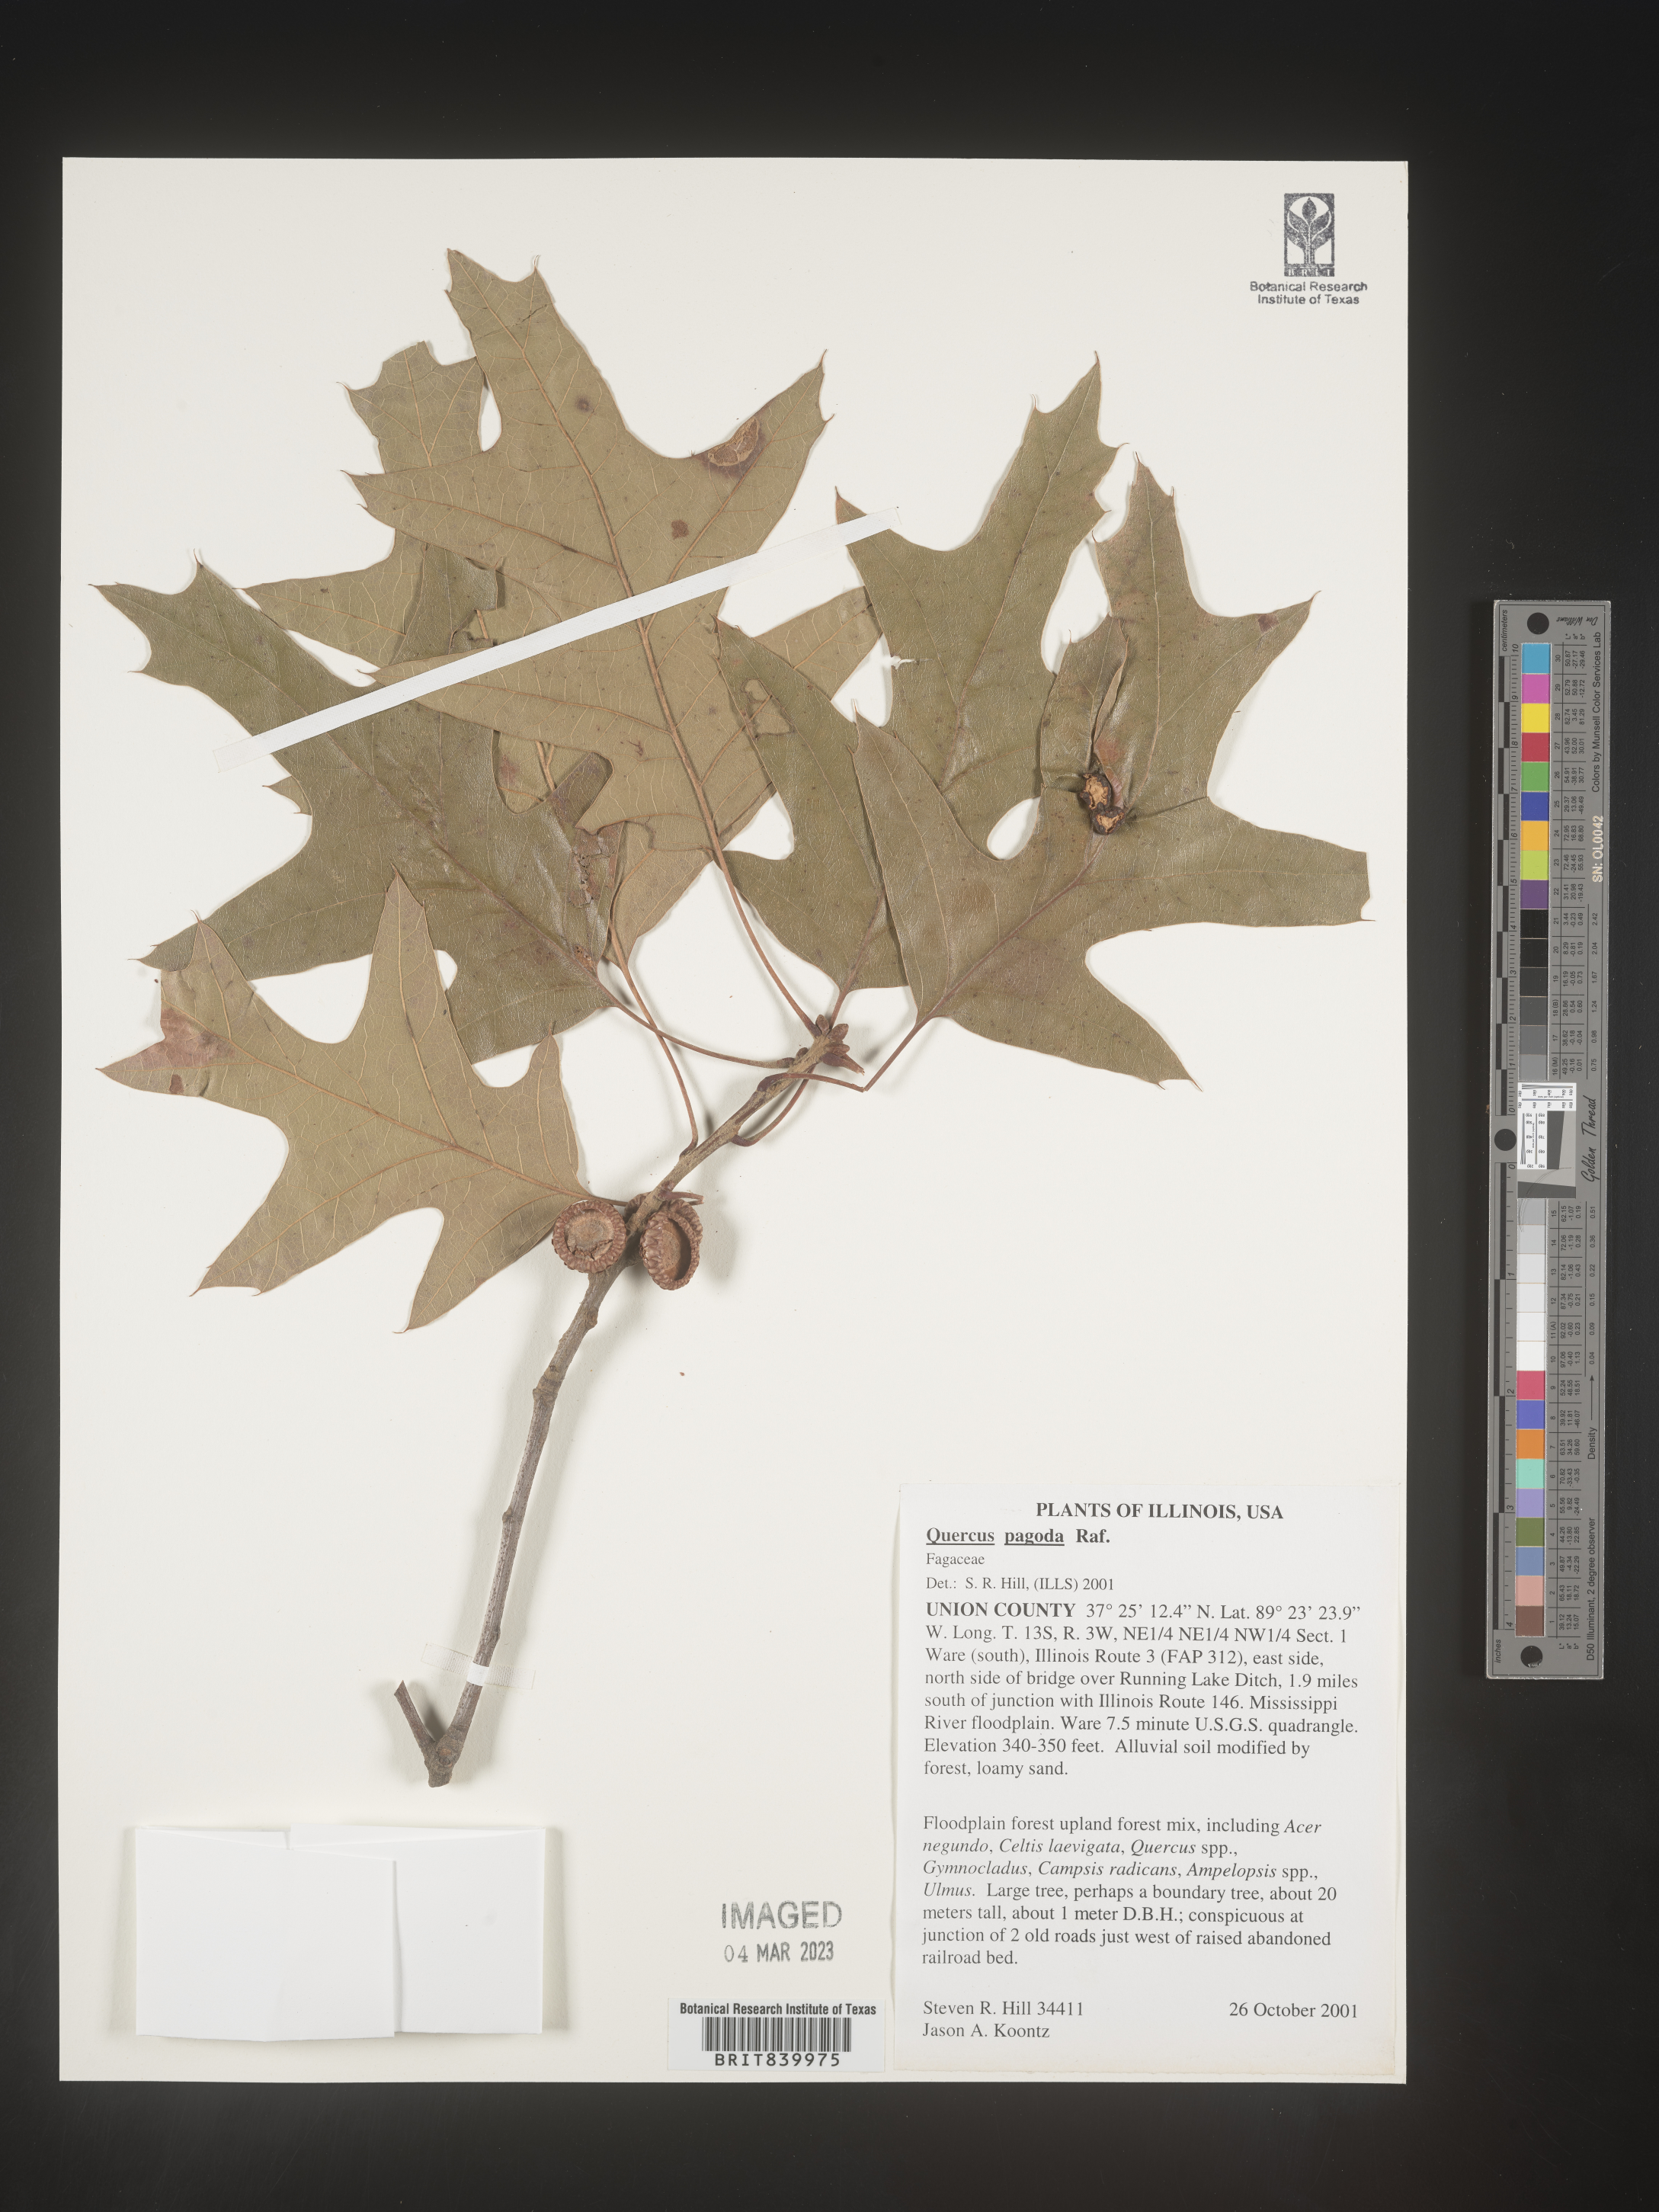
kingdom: Plantae
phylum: Tracheophyta
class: Magnoliopsida
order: Fagales
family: Fagaceae
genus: Quercus
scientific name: Quercus pagoda
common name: Cherrybark oak
